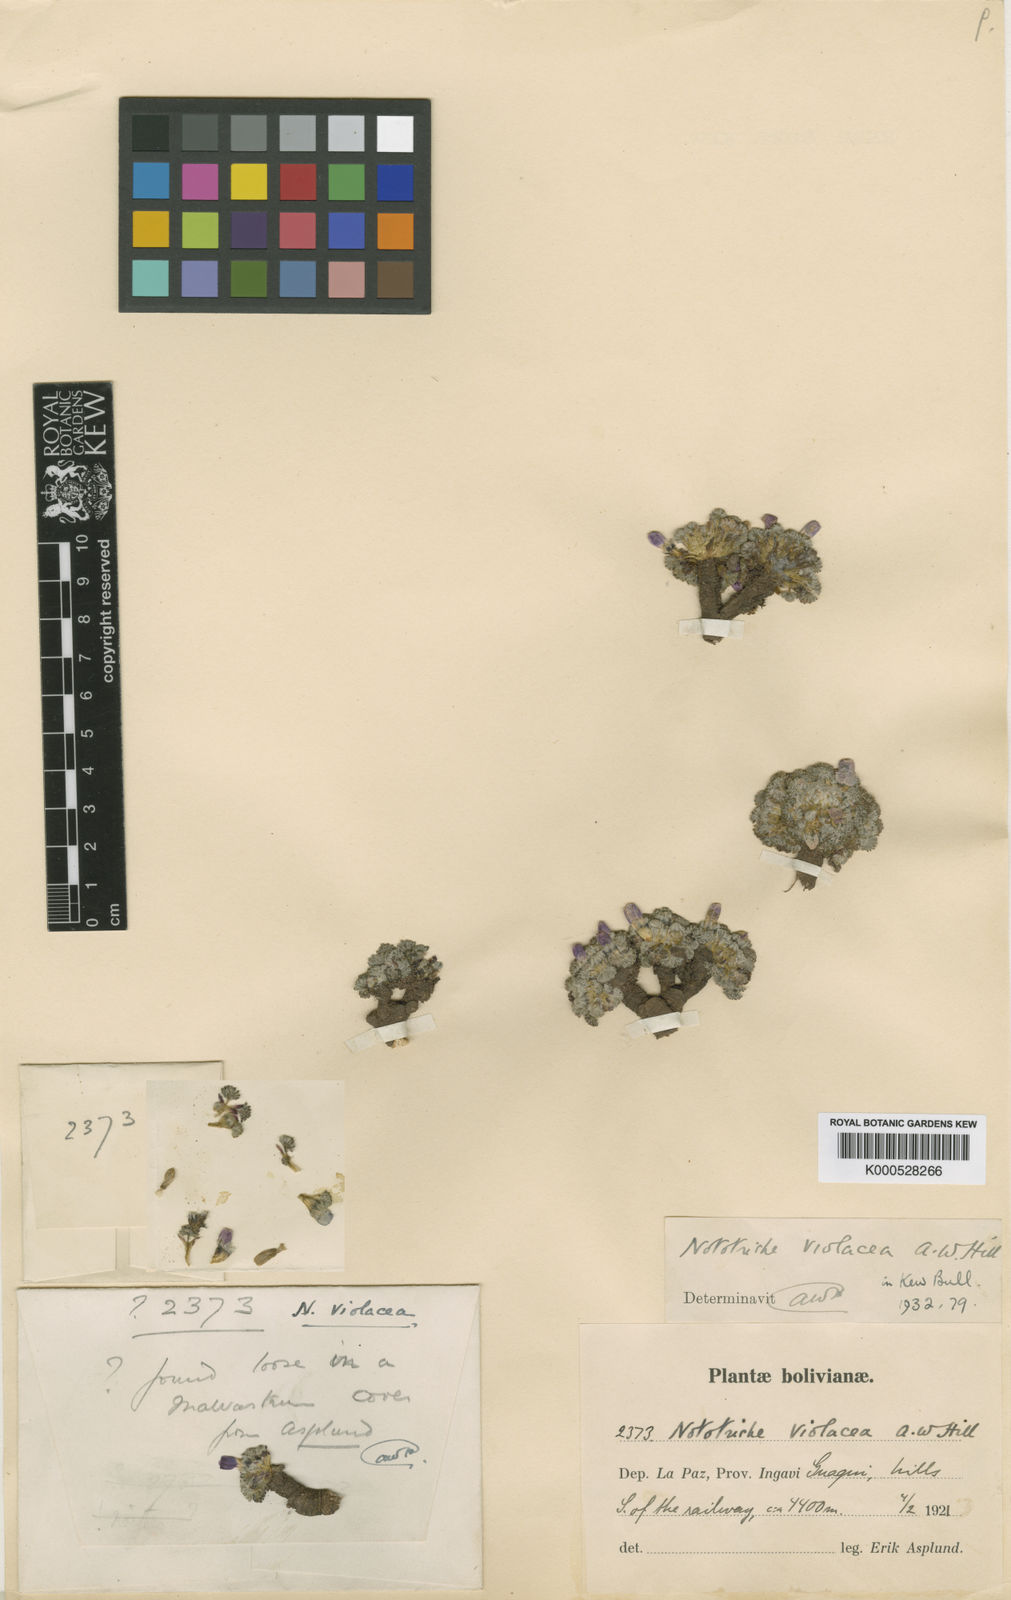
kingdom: Plantae
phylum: Tracheophyta
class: Magnoliopsida
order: Malvales
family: Malvaceae
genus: Nototriche
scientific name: Nototriche violacea
